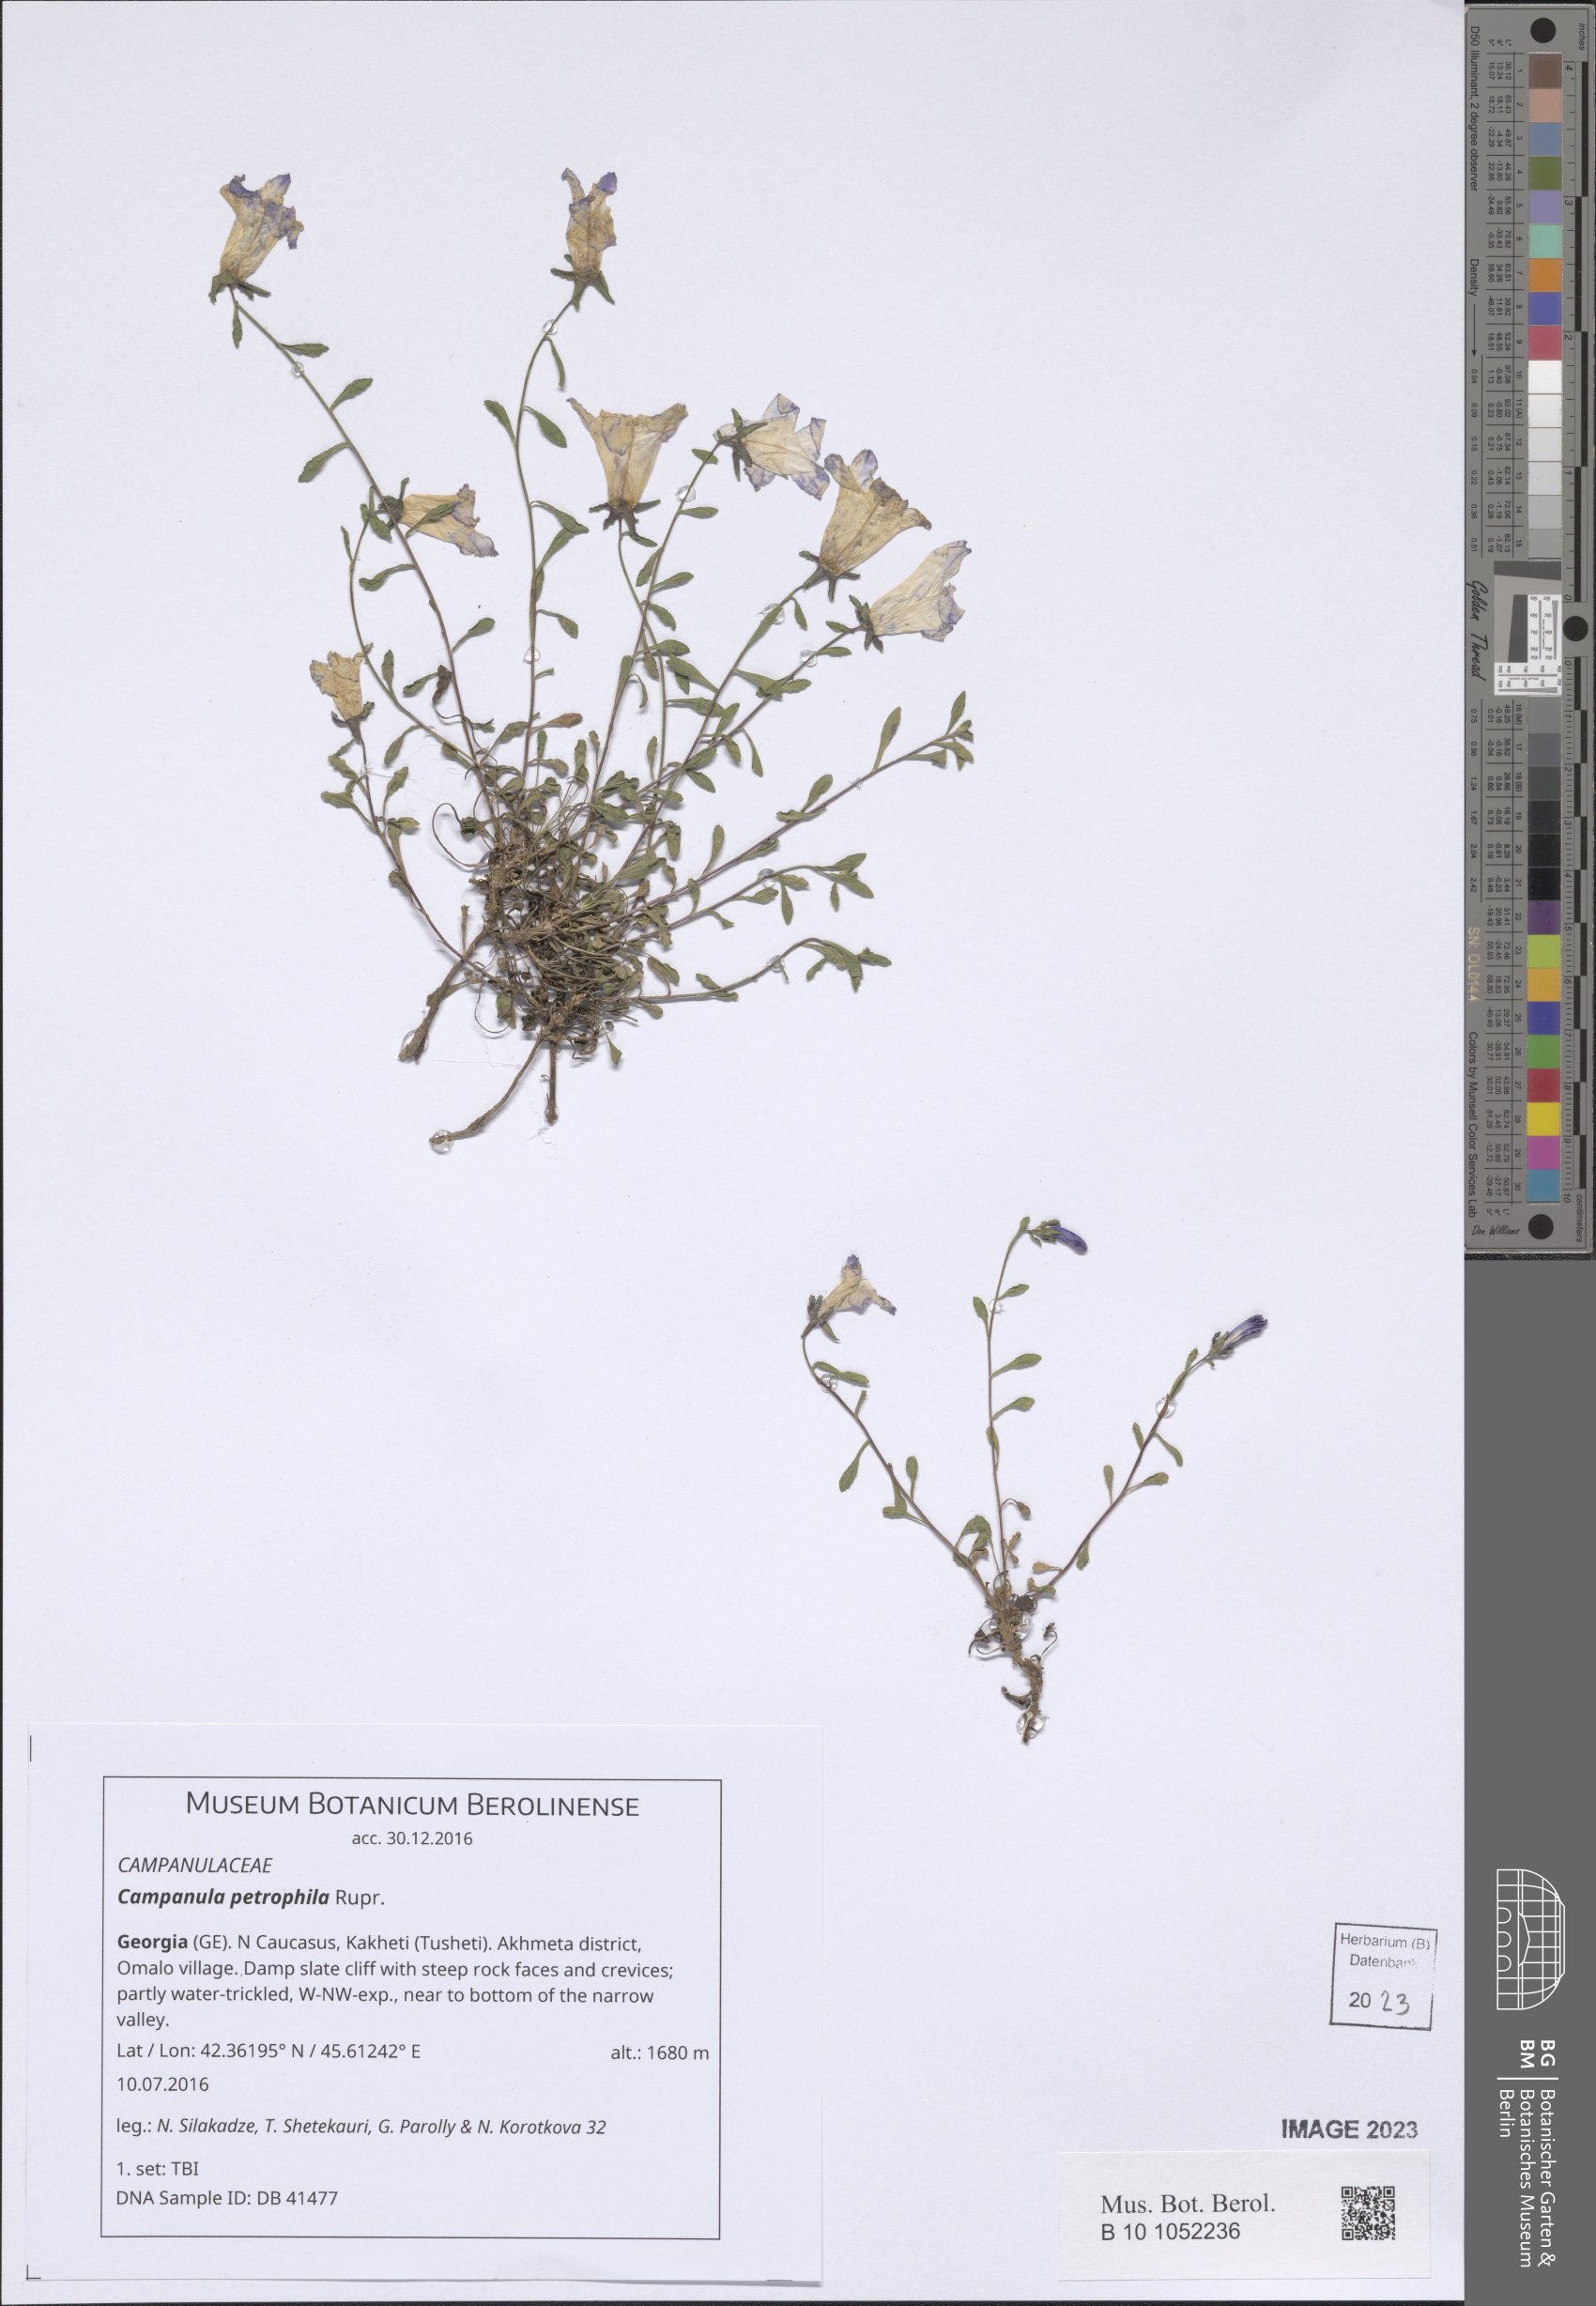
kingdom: Plantae
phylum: Tracheophyta
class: Magnoliopsida
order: Asterales
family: Campanulaceae
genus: Campanula
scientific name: Campanula petrophila
